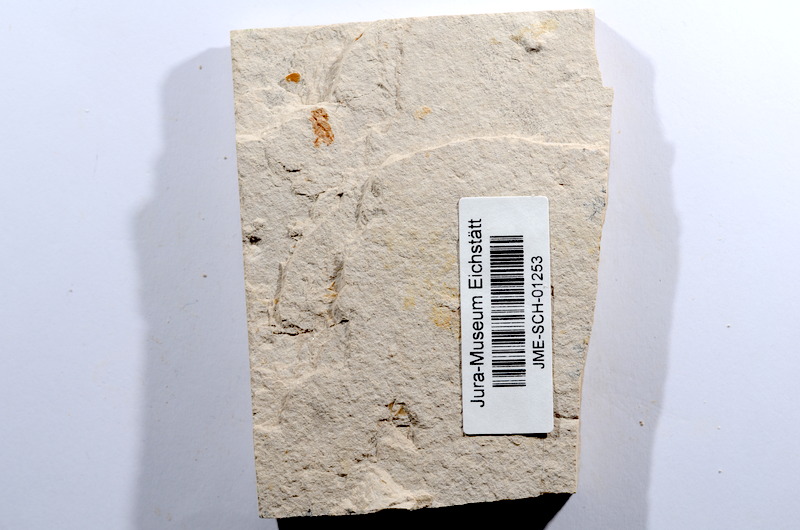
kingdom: Animalia
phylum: Chordata
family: Ascalaboidae
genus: Tharsis
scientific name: Tharsis dubius
